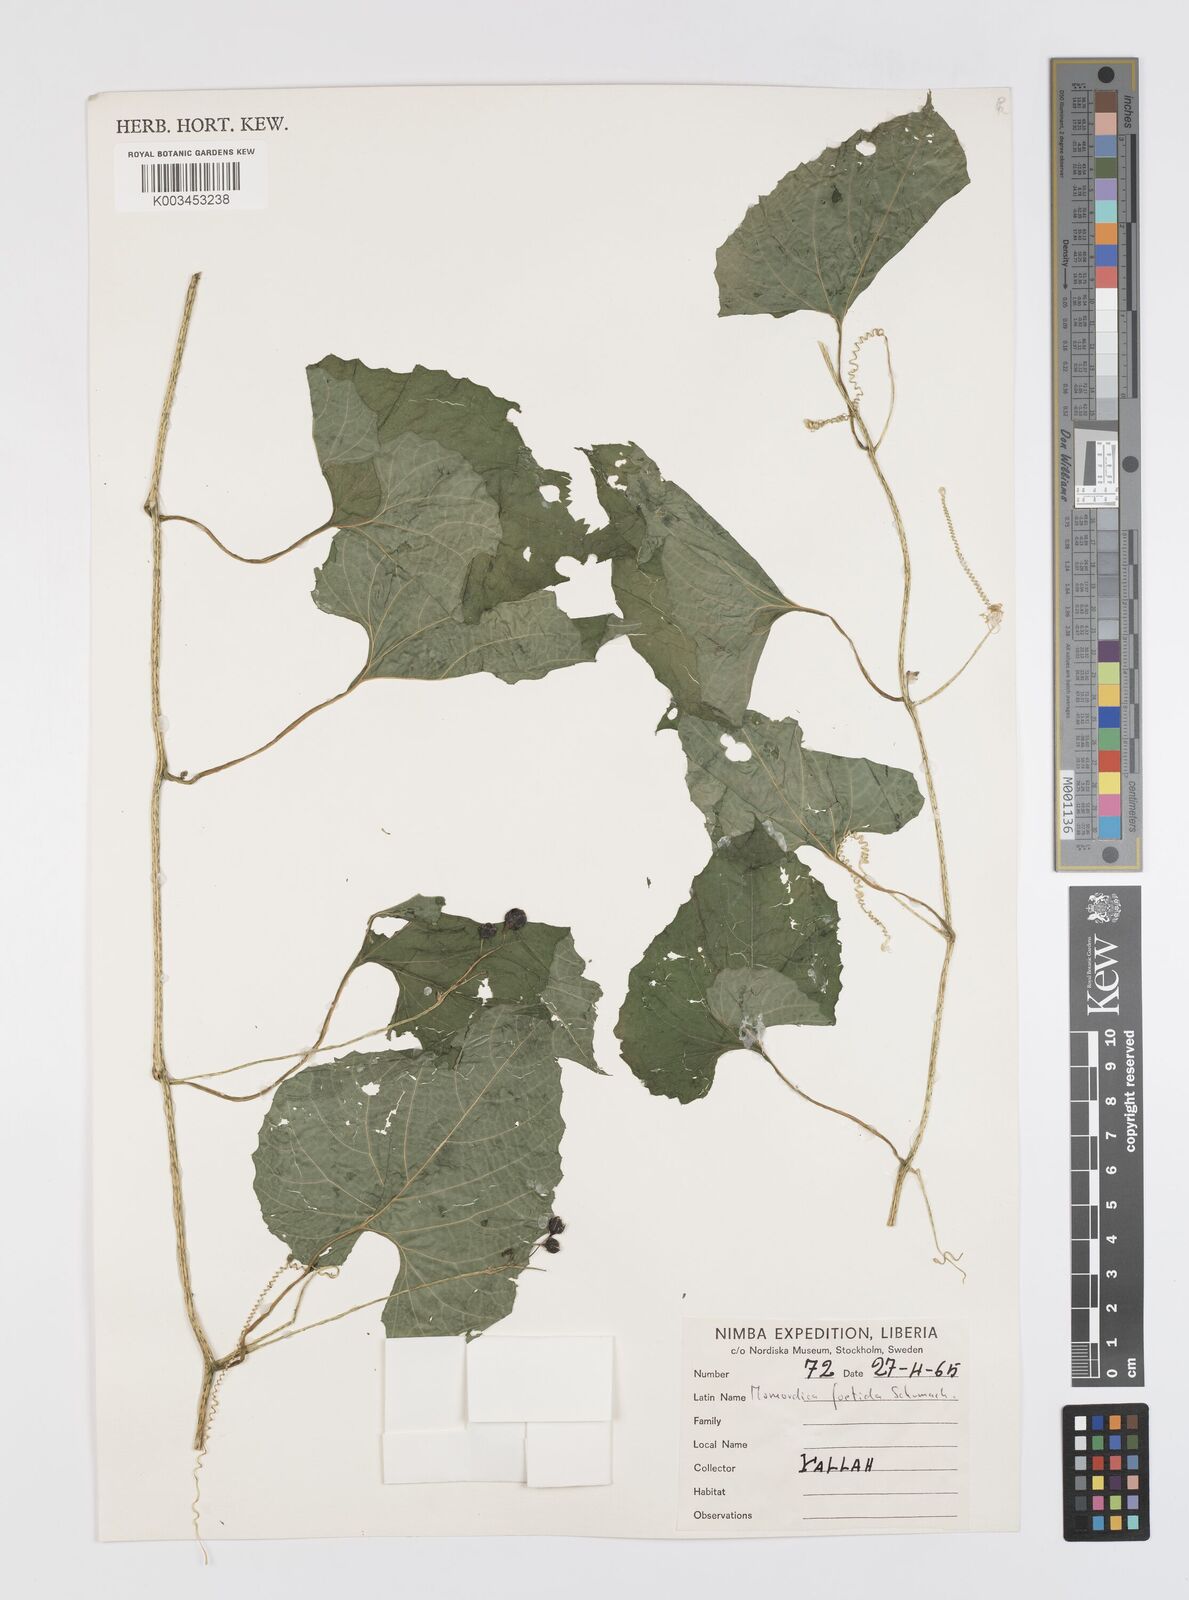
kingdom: Plantae
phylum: Tracheophyta
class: Magnoliopsida
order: Cucurbitales
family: Cucurbitaceae
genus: Momordica
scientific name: Momordica foetida
